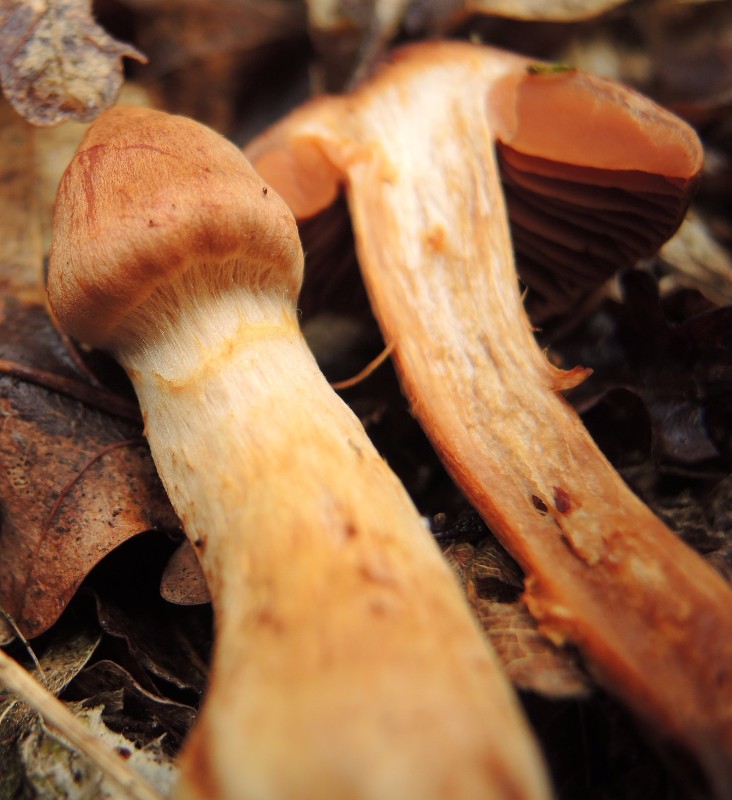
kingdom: Fungi
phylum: Basidiomycota
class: Agaricomycetes
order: Agaricales
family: Cortinariaceae
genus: Cortinarius
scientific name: Cortinarius rubellus
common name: puklet gift-slørhat
